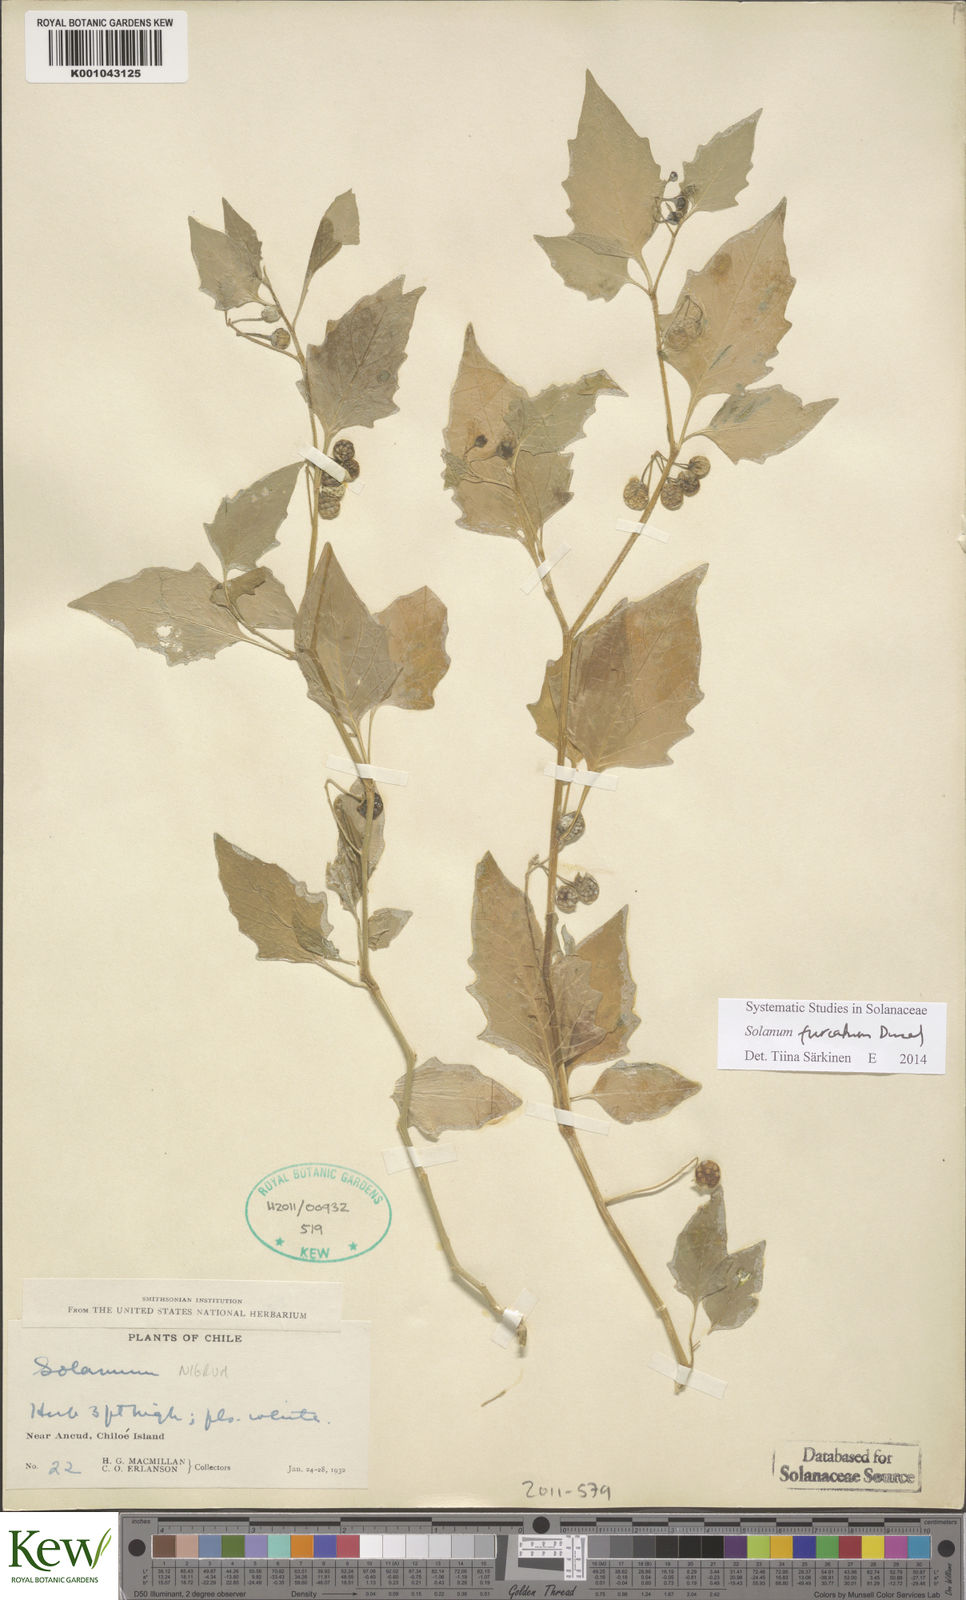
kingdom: Plantae
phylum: Tracheophyta
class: Magnoliopsida
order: Solanales
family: Solanaceae
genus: Solanum
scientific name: Solanum furcatum
